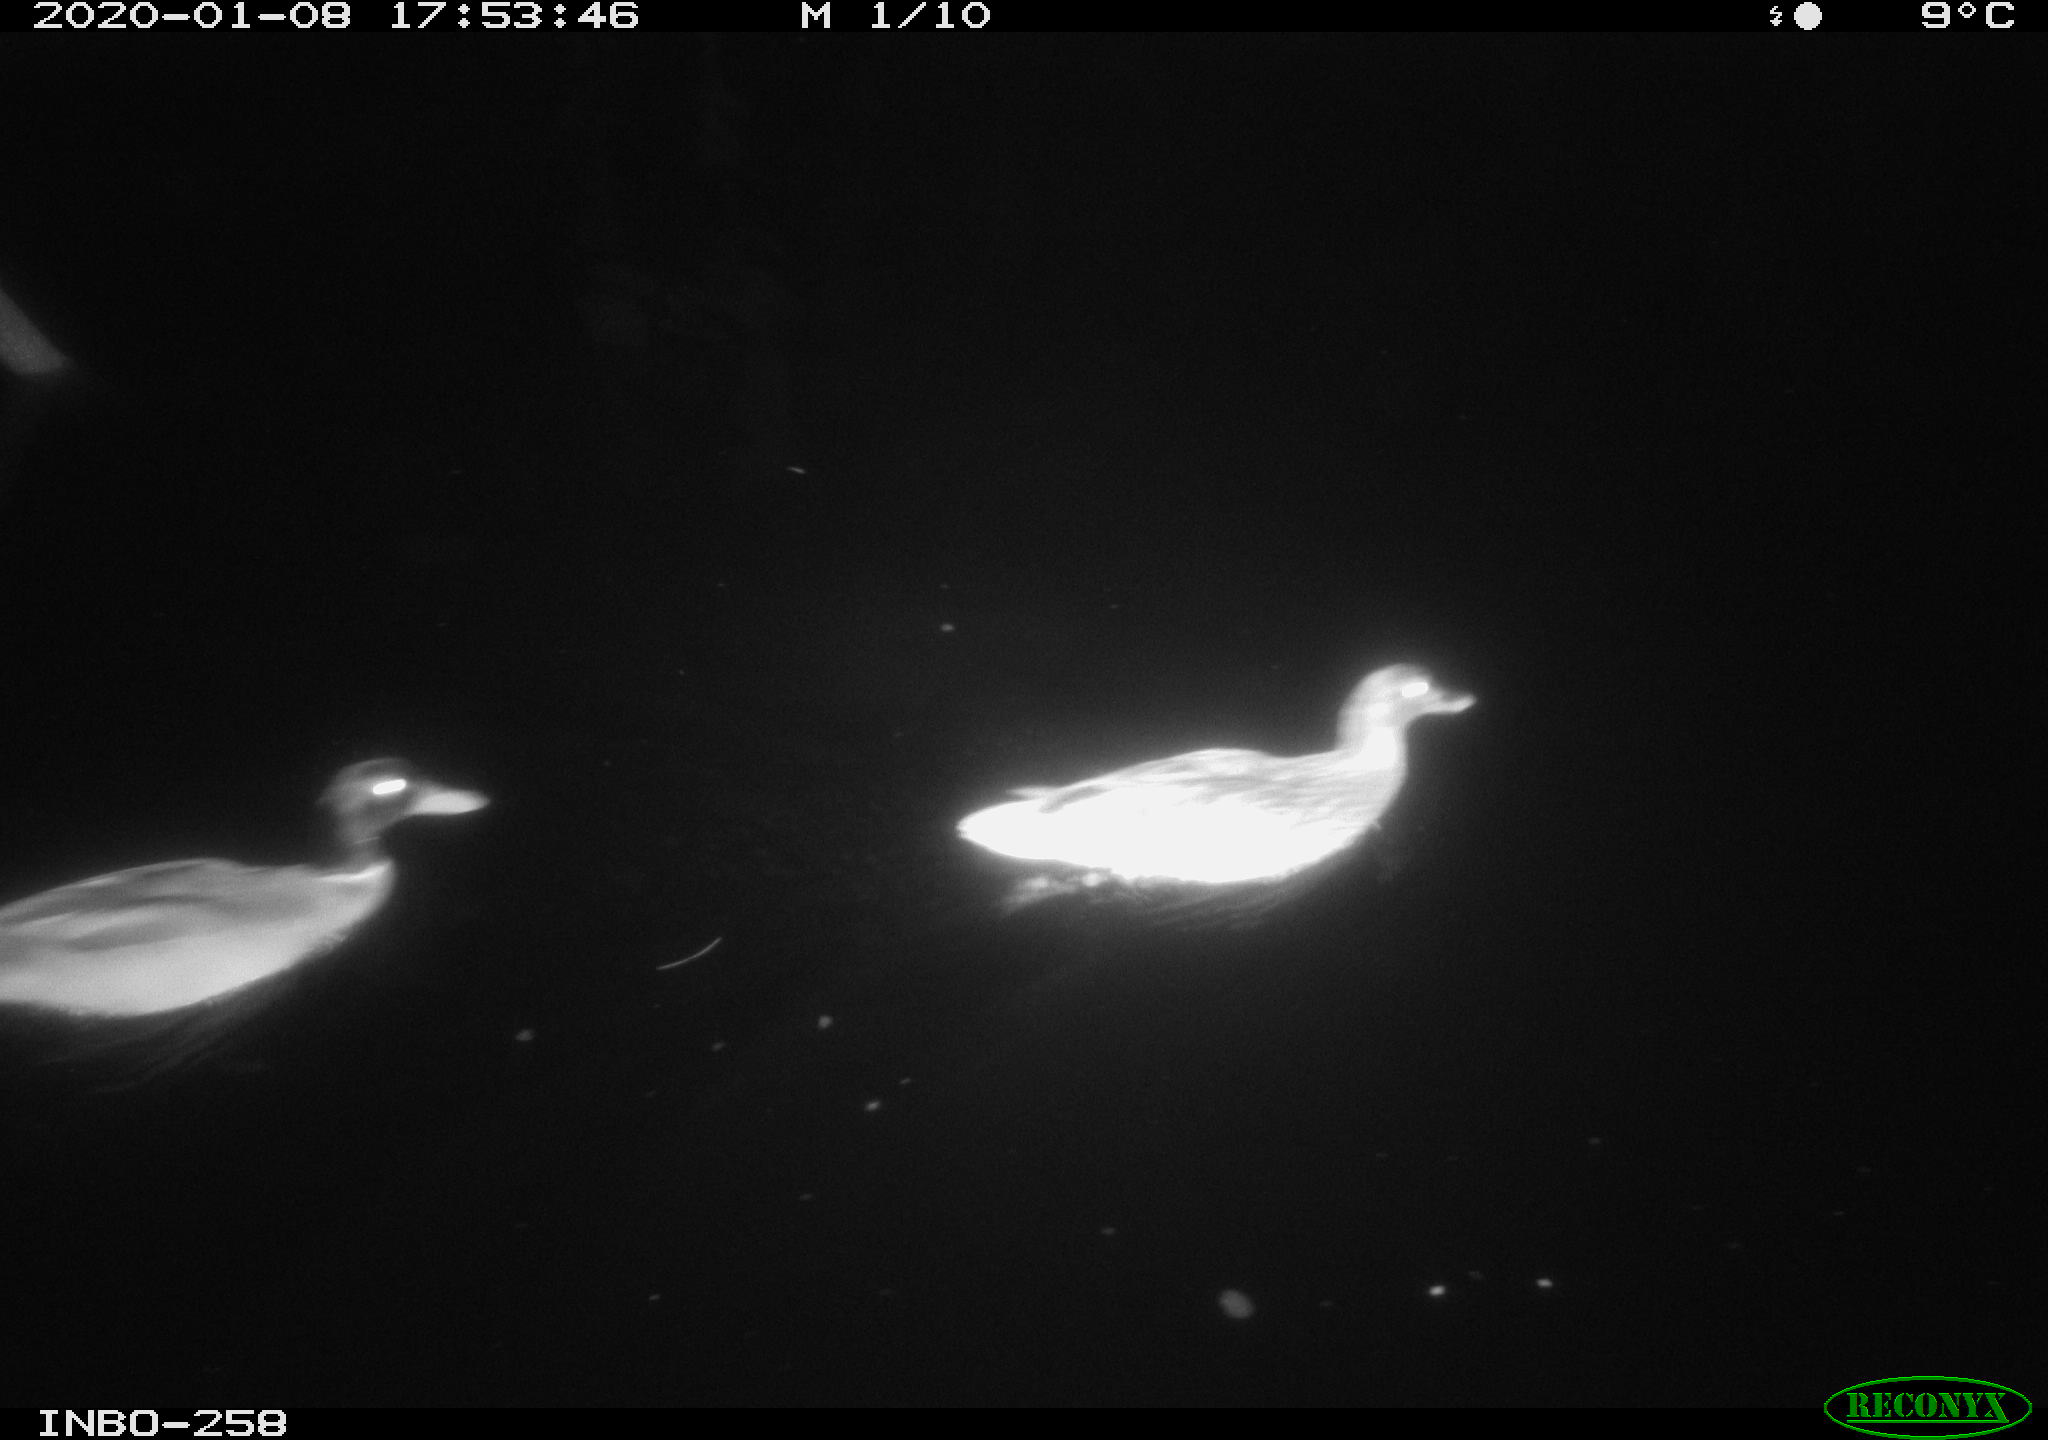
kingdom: Animalia
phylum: Chordata
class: Aves
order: Anseriformes
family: Anatidae
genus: Anas
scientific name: Anas platyrhynchos
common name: Mallard
